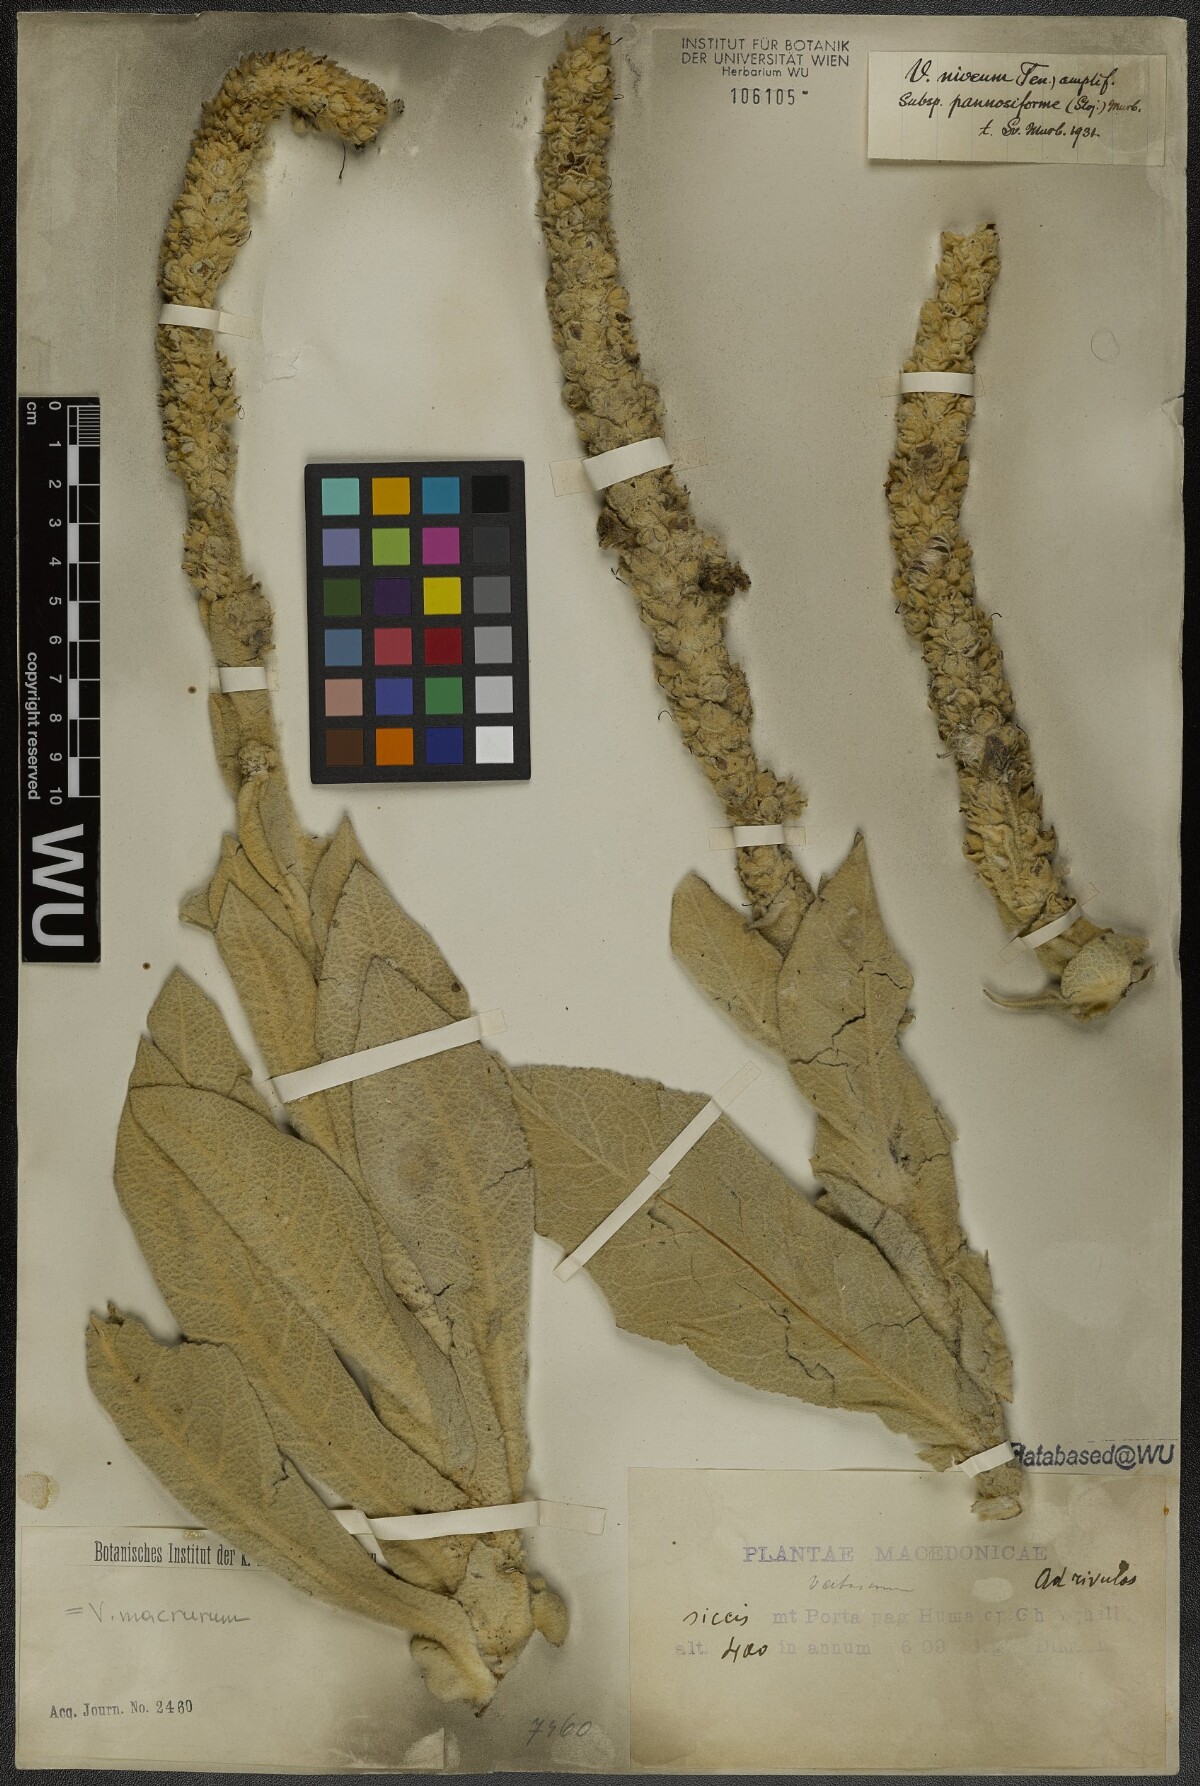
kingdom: Plantae
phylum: Tracheophyta
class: Magnoliopsida
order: Lamiales
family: Scrophulariaceae
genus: Verbascum
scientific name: Verbascum macrurum
